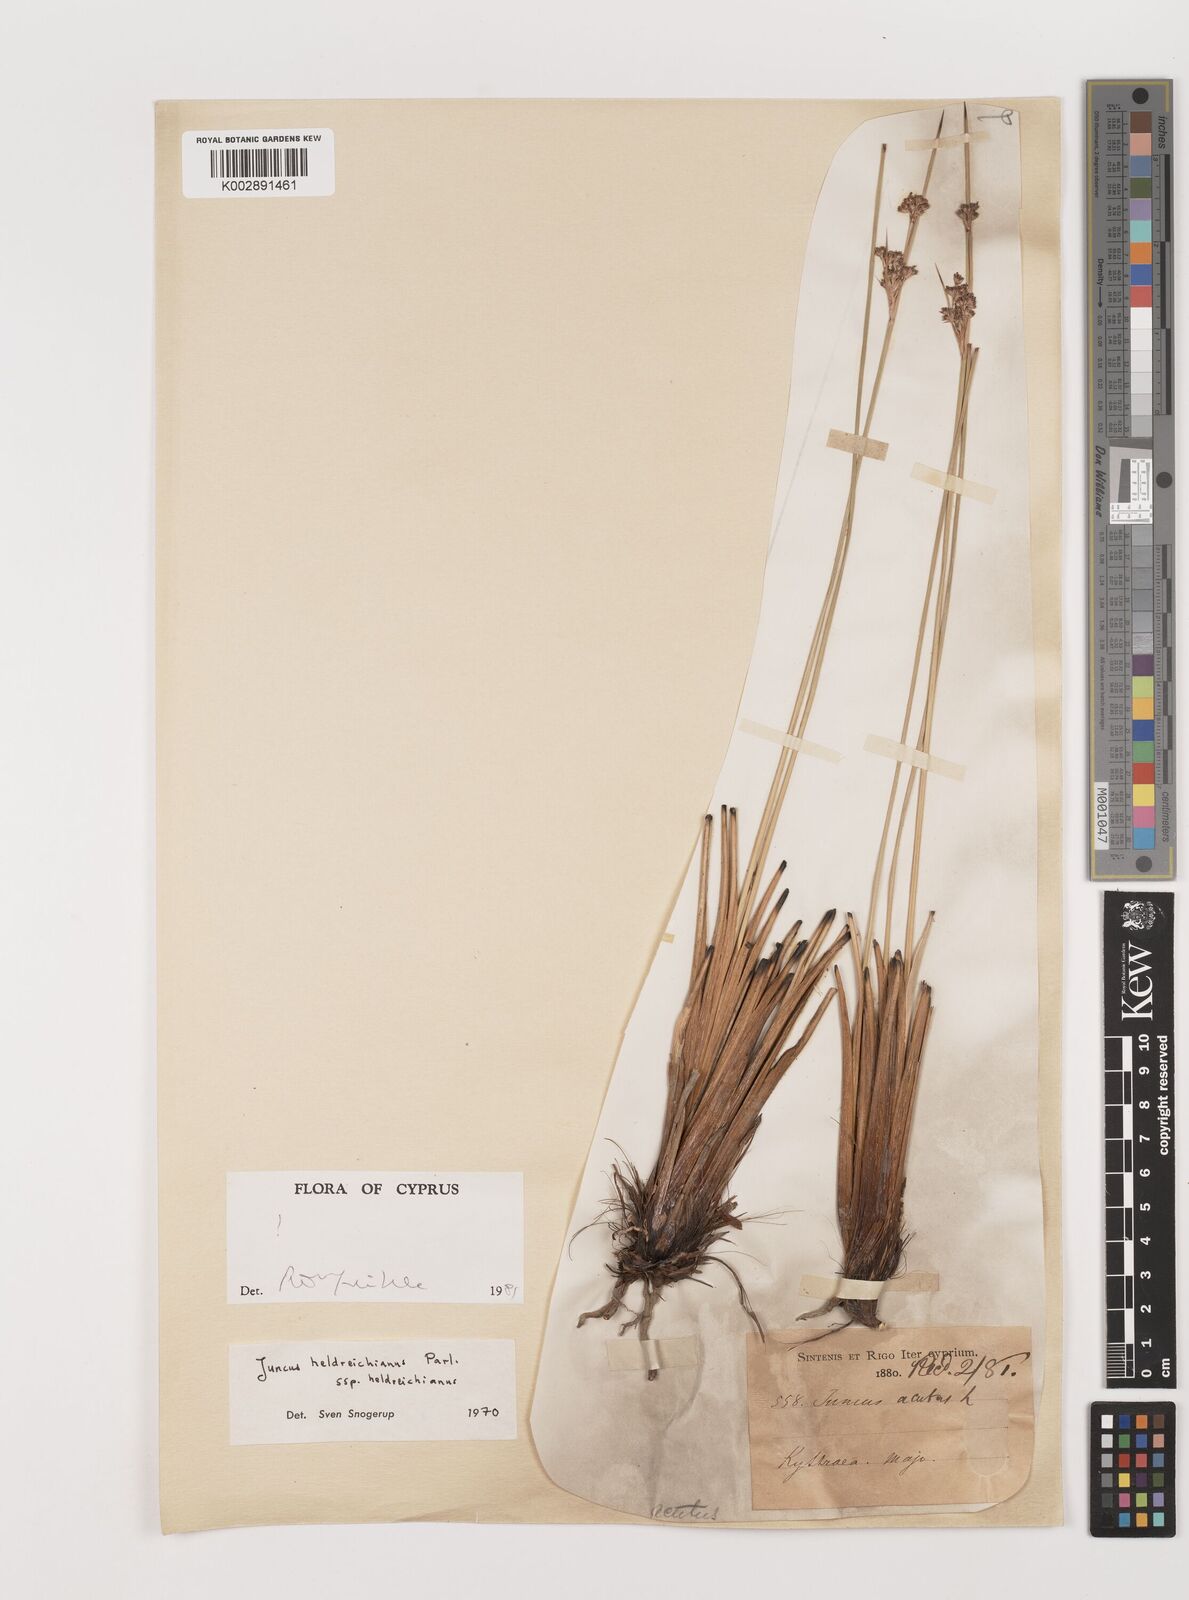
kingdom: Plantae
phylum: Tracheophyta
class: Liliopsida
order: Poales
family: Juncaceae
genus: Juncus
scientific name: Juncus heldreichianus
